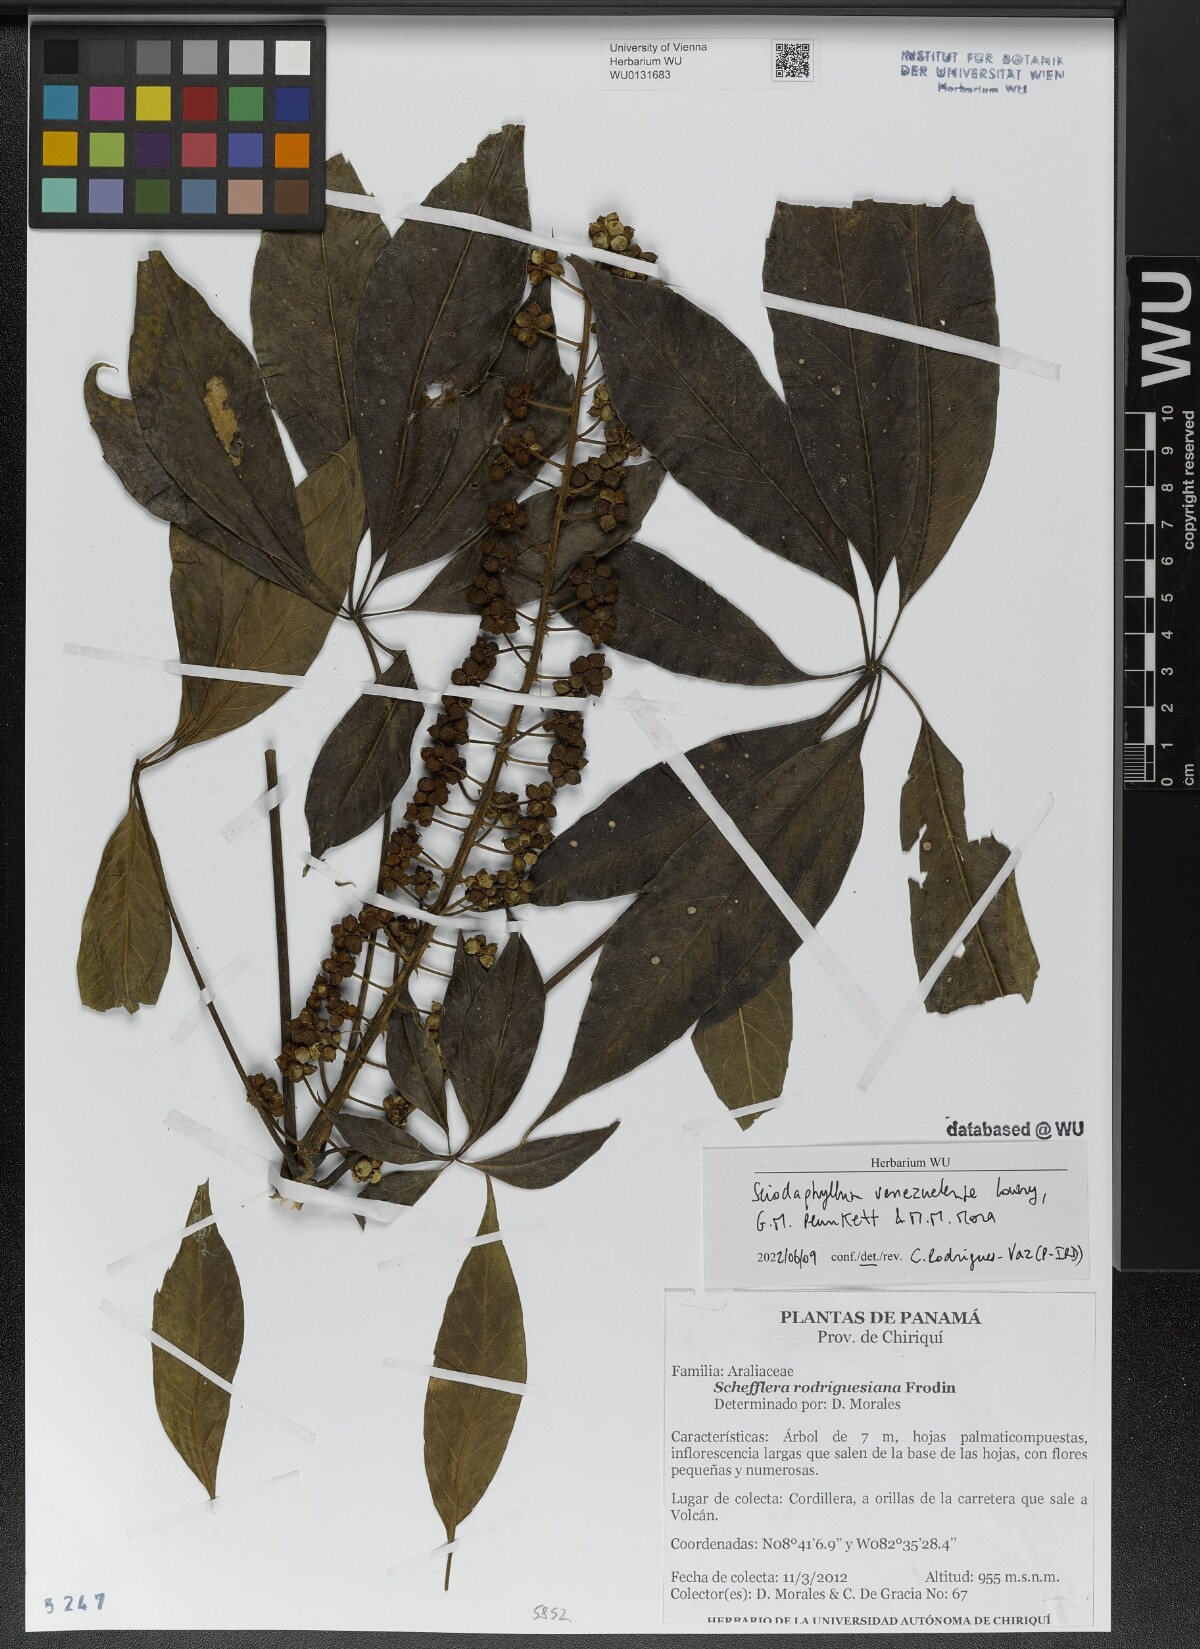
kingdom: Plantae
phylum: Tracheophyta
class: Magnoliopsida
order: Apiales
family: Araliaceae
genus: Sciodaphyllum
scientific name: Sciodaphyllum venezuelense
